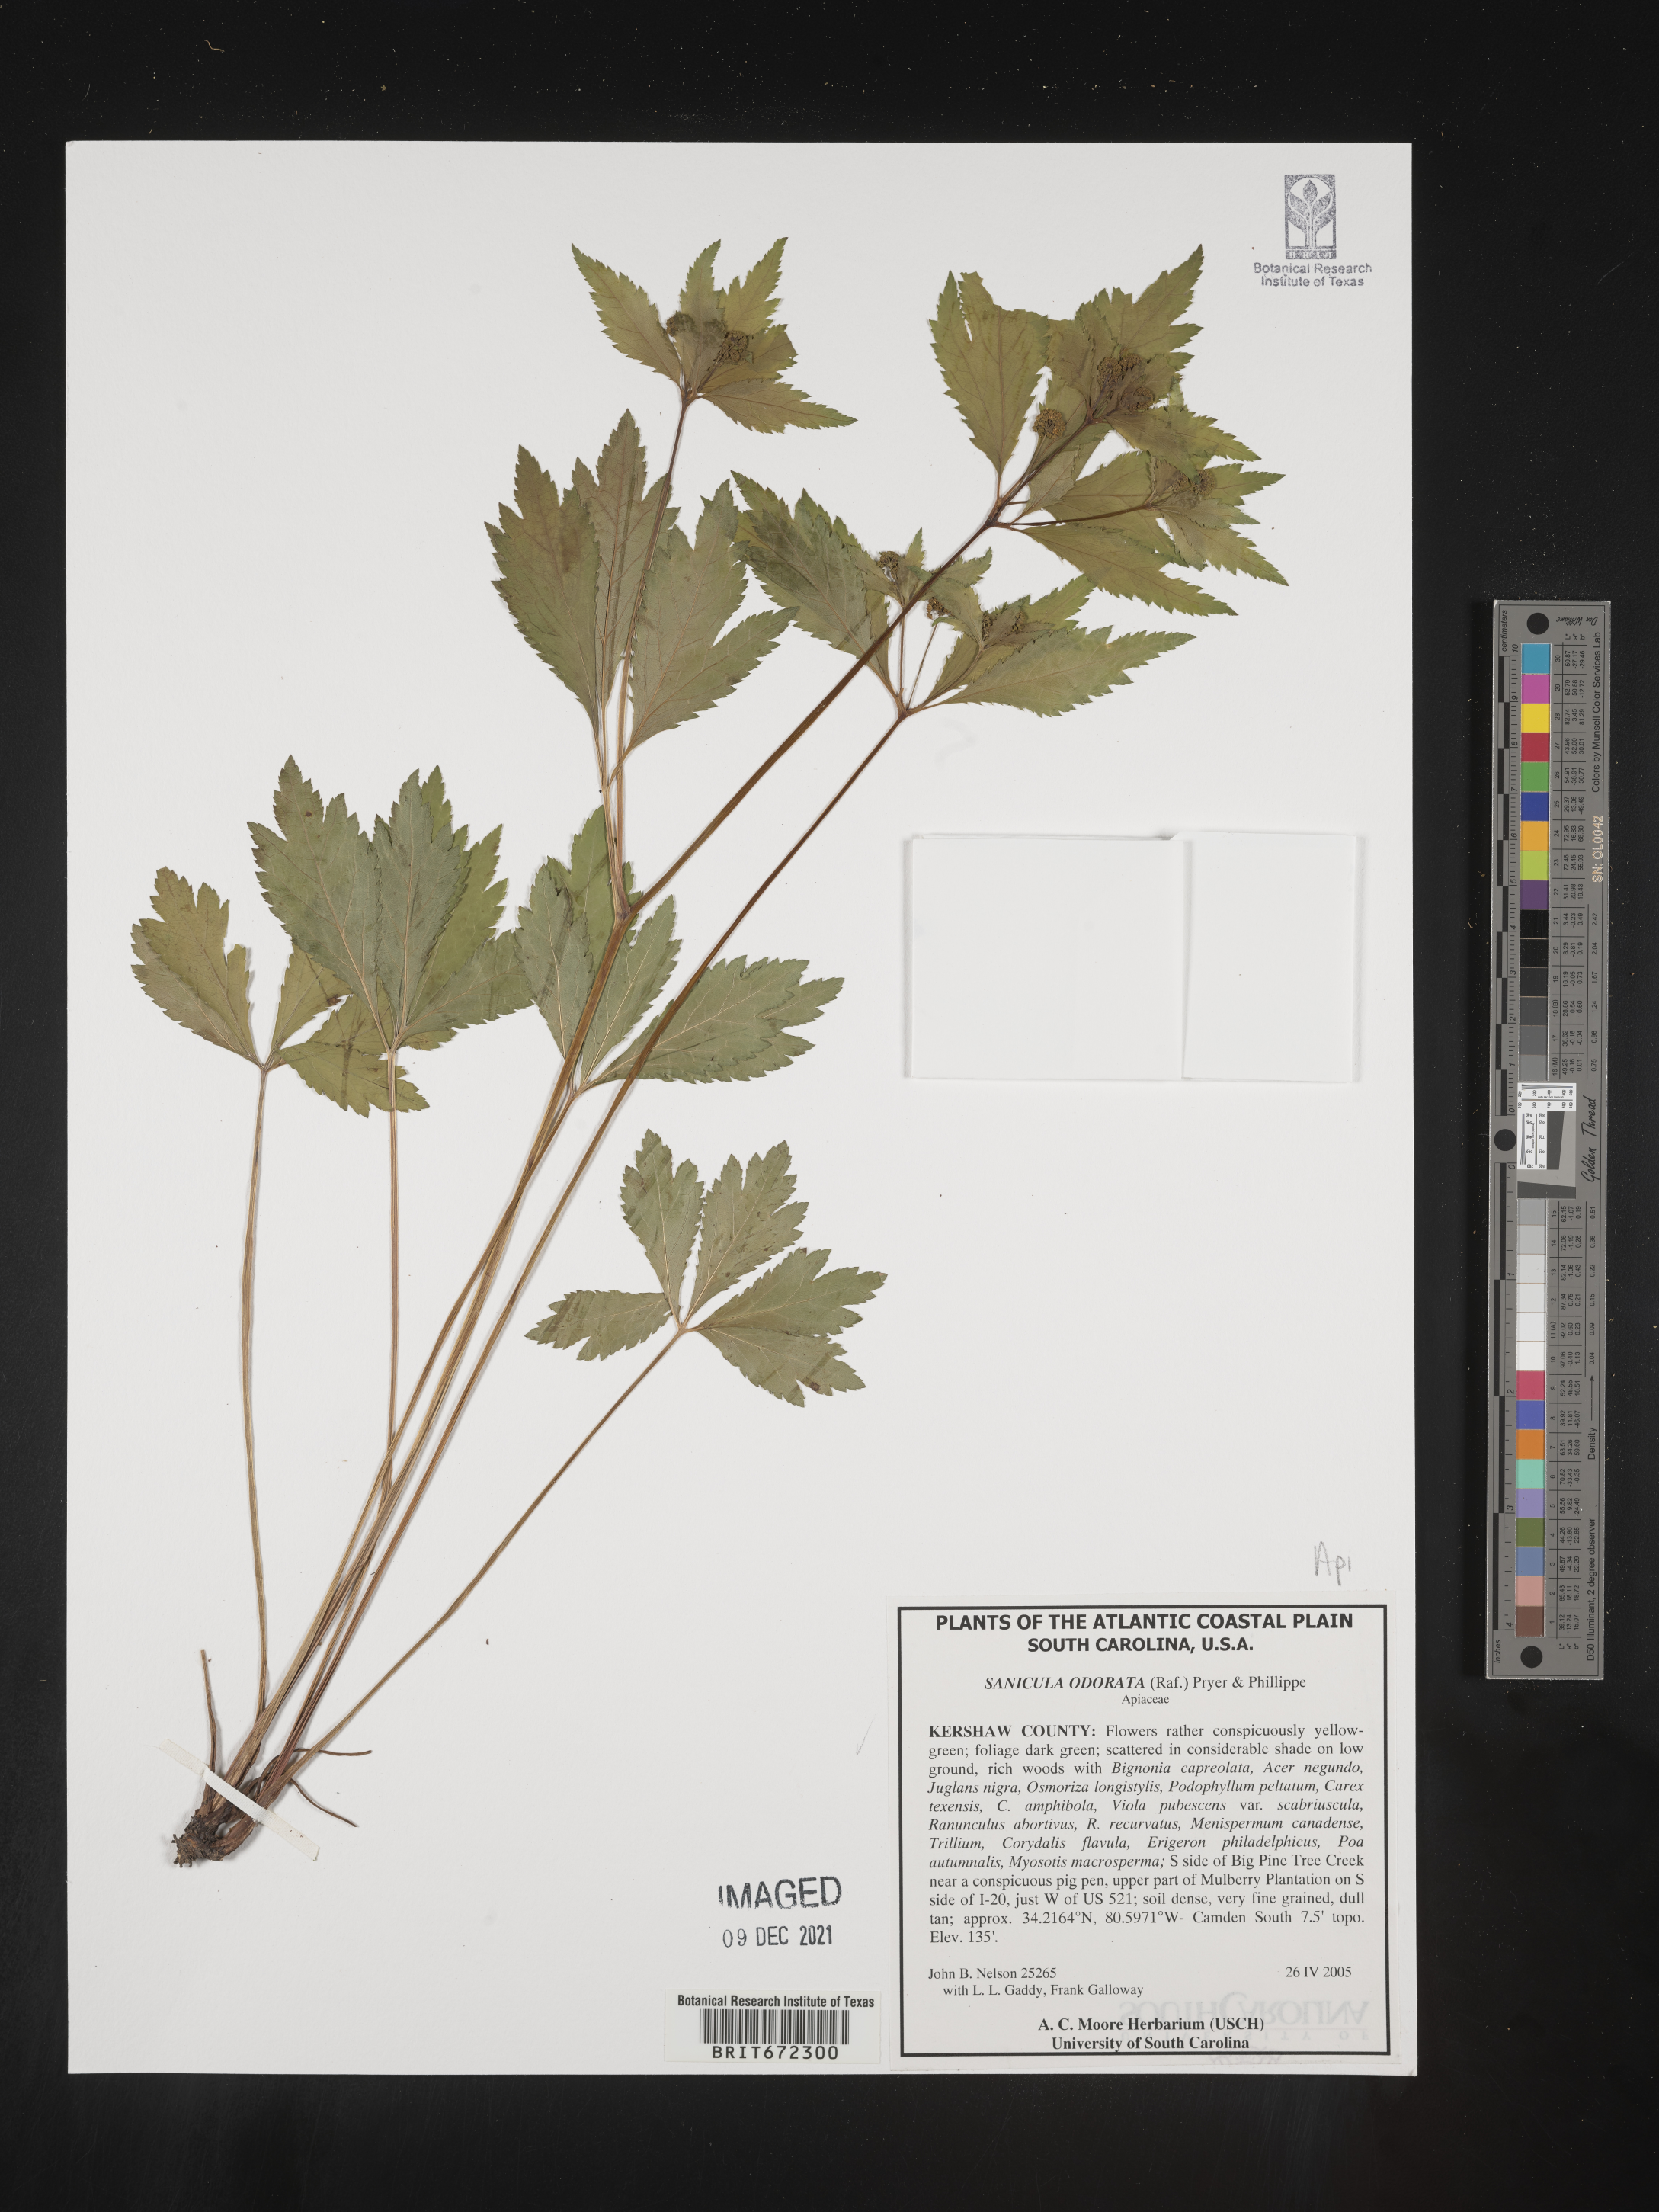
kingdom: Plantae
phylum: Tracheophyta
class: Magnoliopsida
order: Apiales
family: Apiaceae
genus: Sanicula
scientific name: Sanicula
